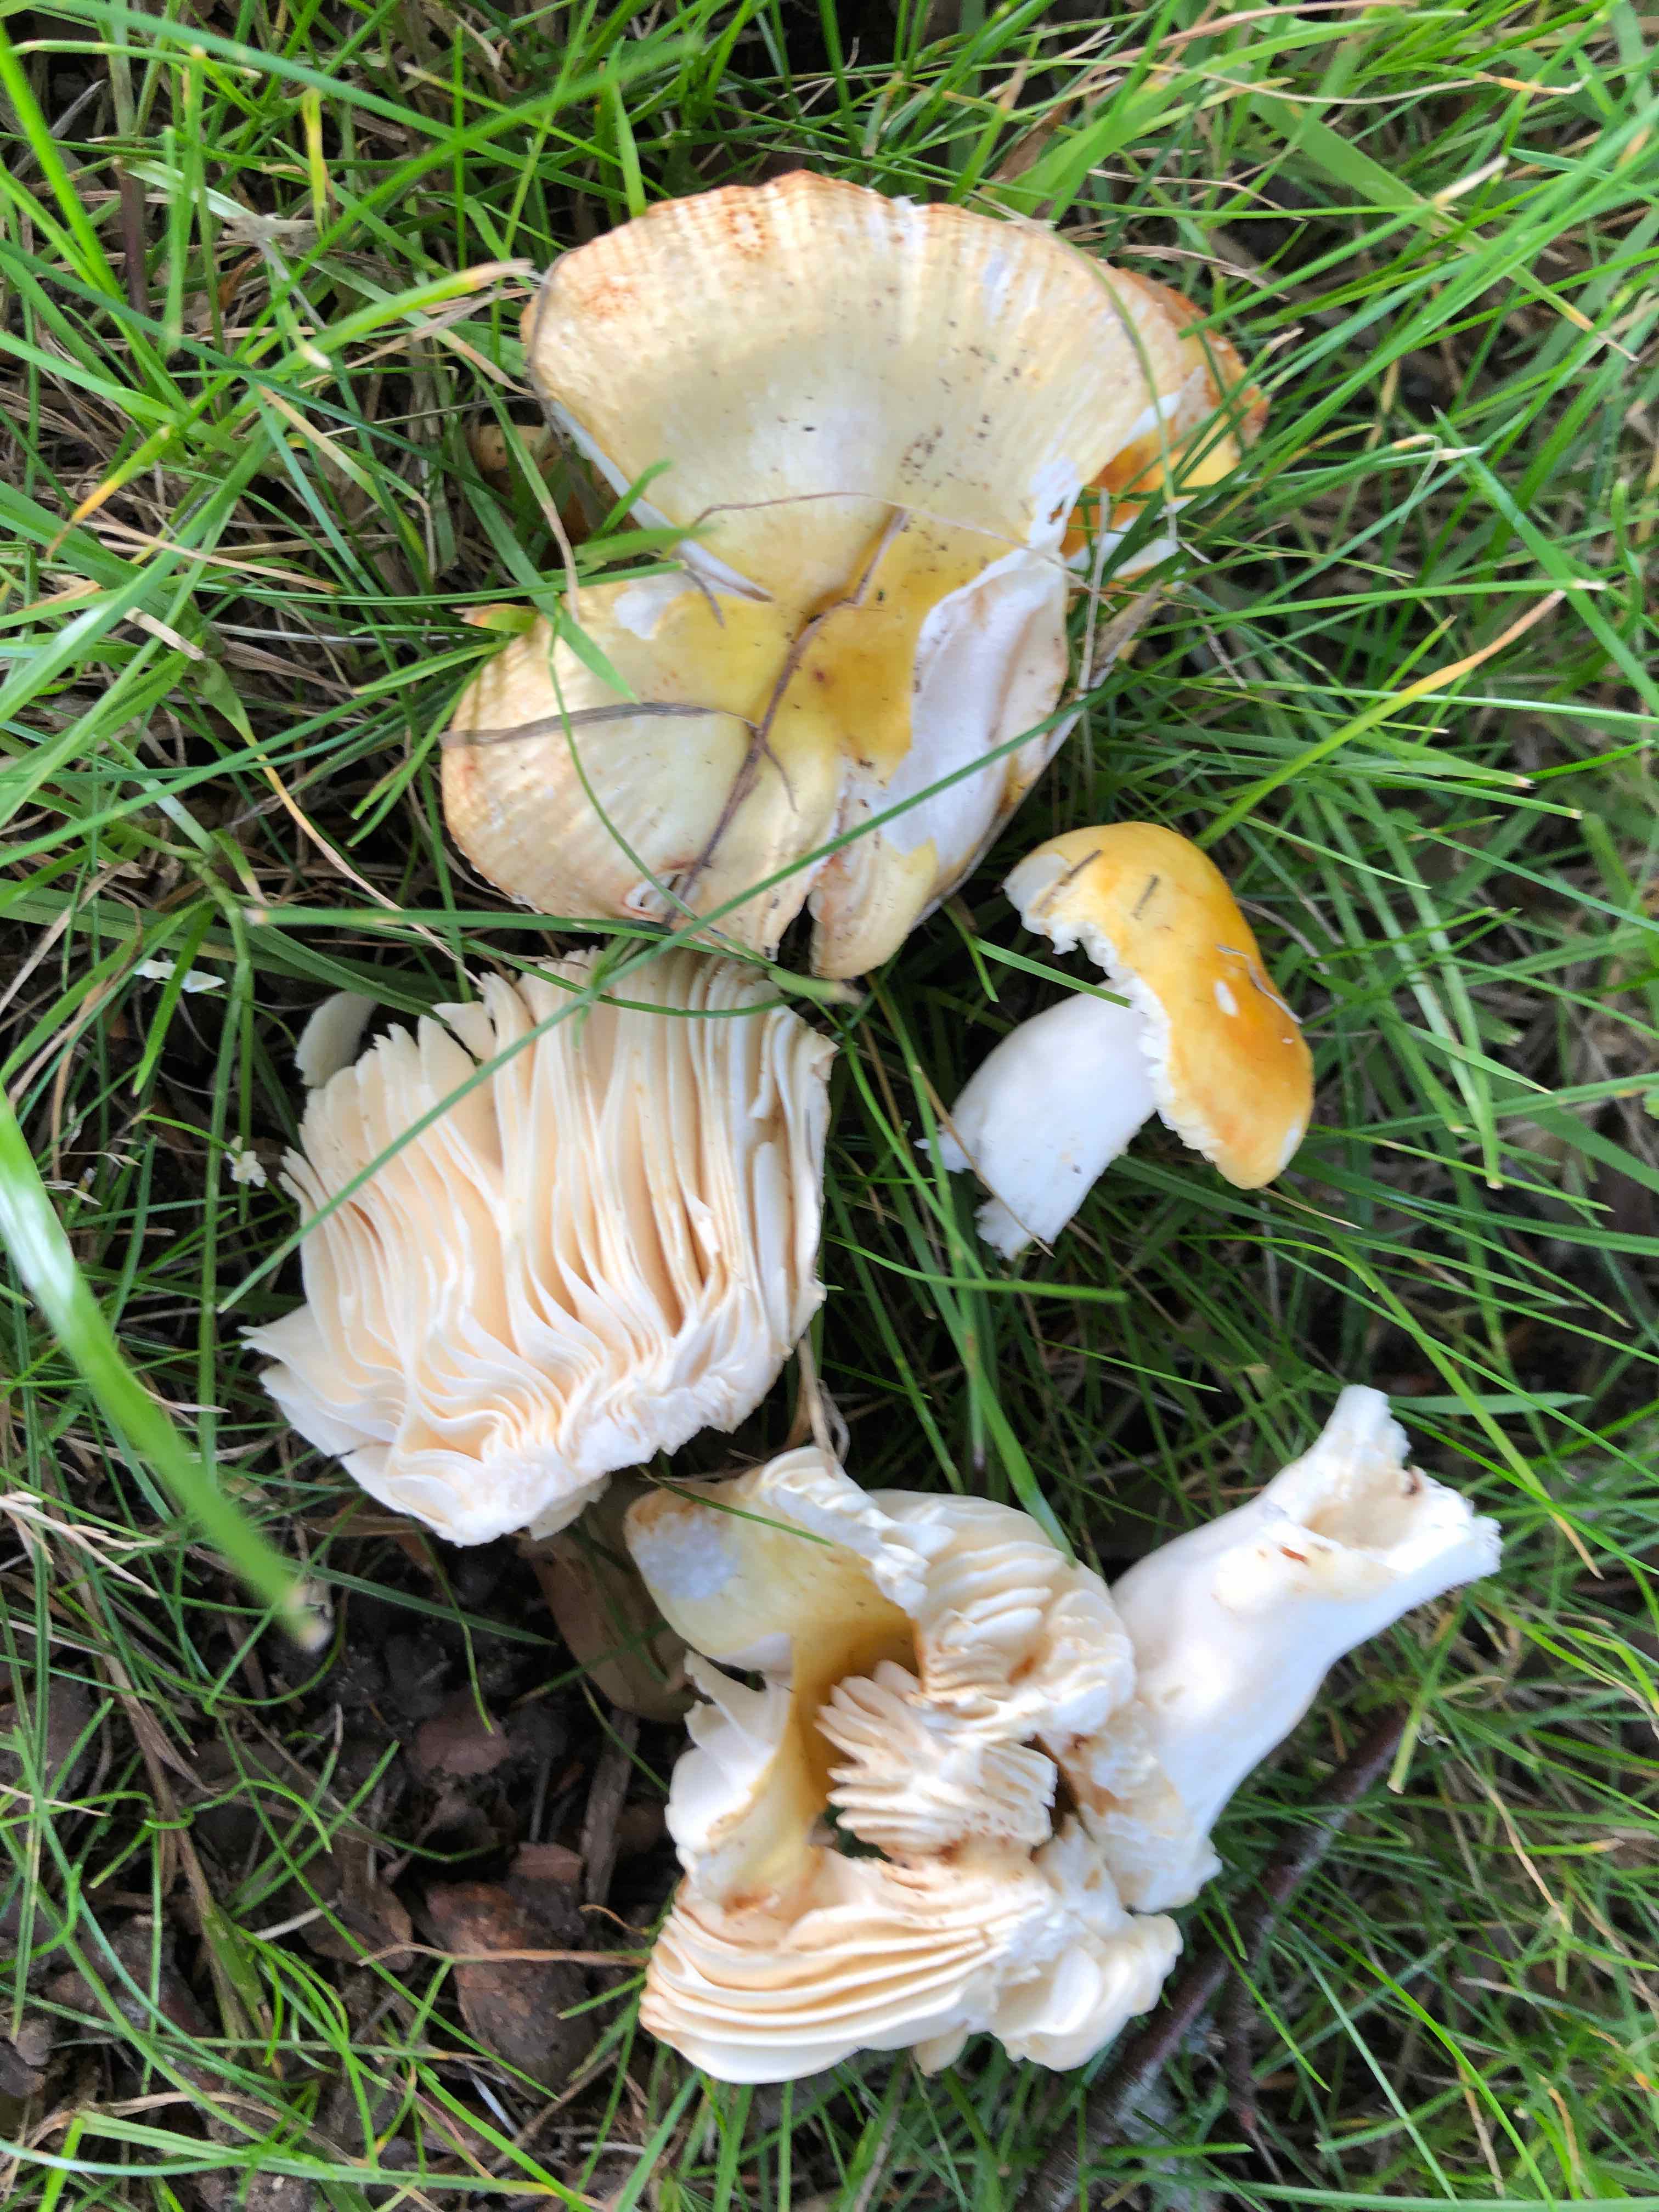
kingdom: Fungi
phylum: Basidiomycota
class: Agaricomycetes
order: Russulales
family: Russulaceae
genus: Russula
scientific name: Russula solaris
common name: sol-skørhat
